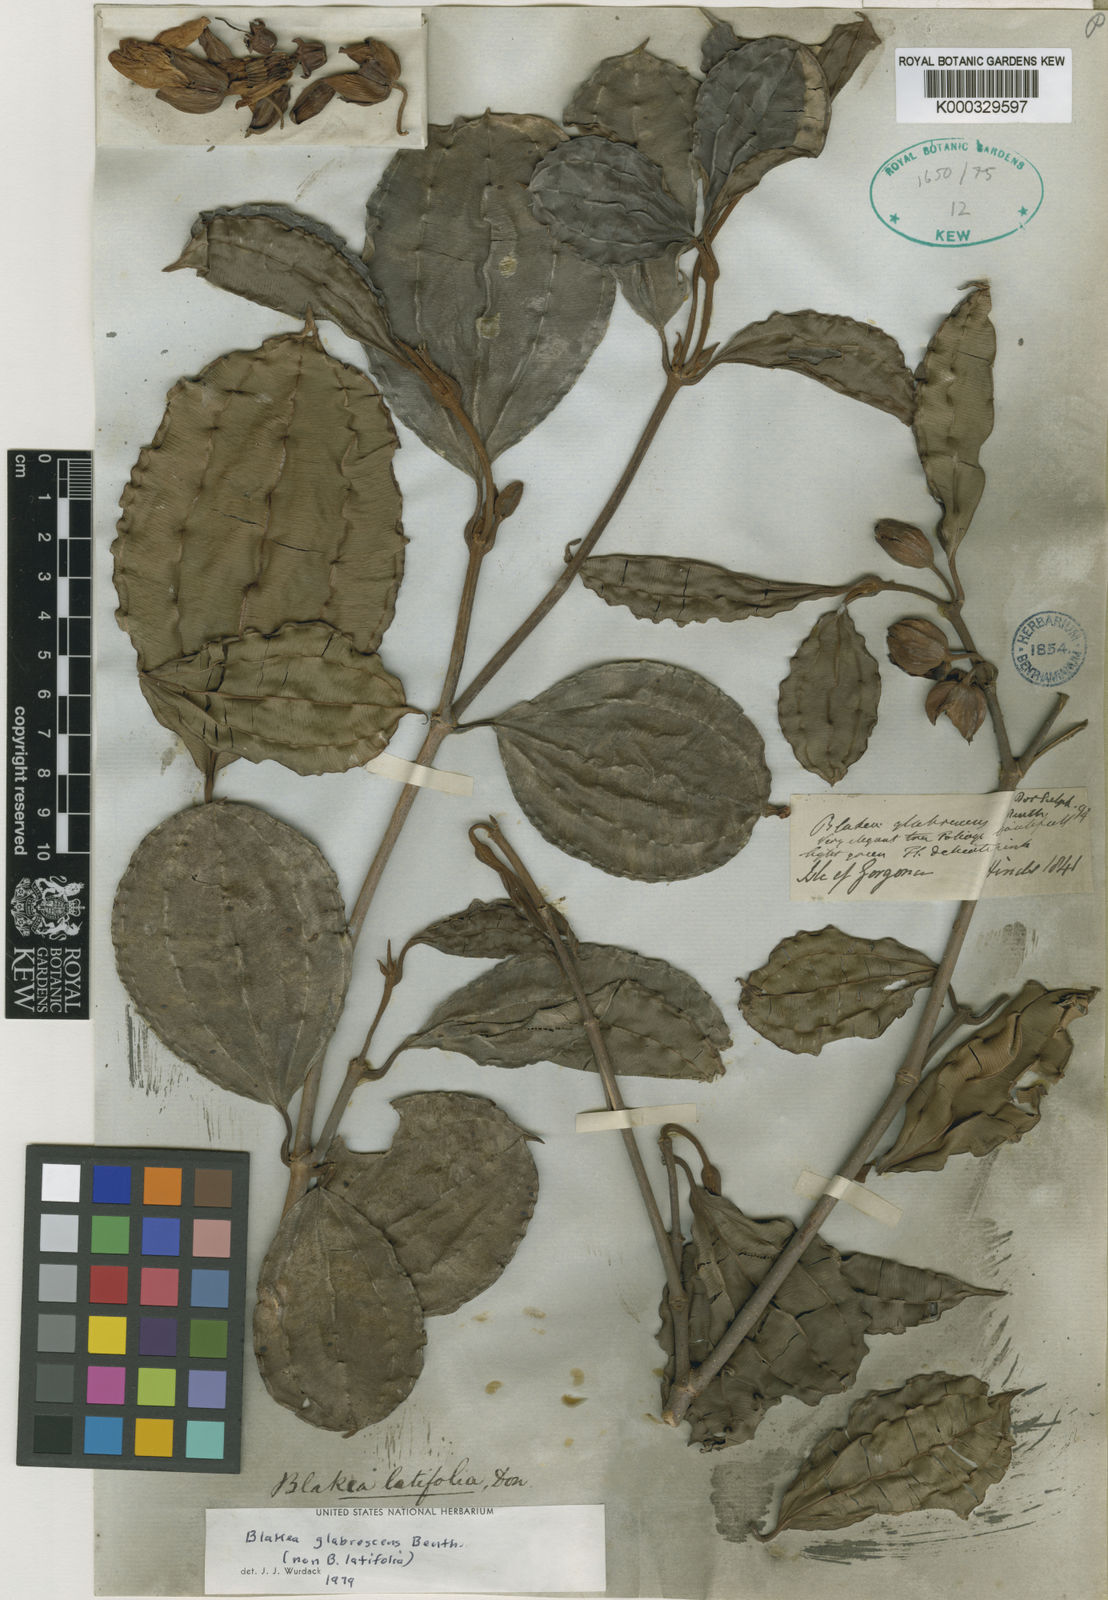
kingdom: Plantae
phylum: Tracheophyta
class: Magnoliopsida
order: Myrtales
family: Melastomataceae
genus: Blakea
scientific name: Blakea glabrescens
